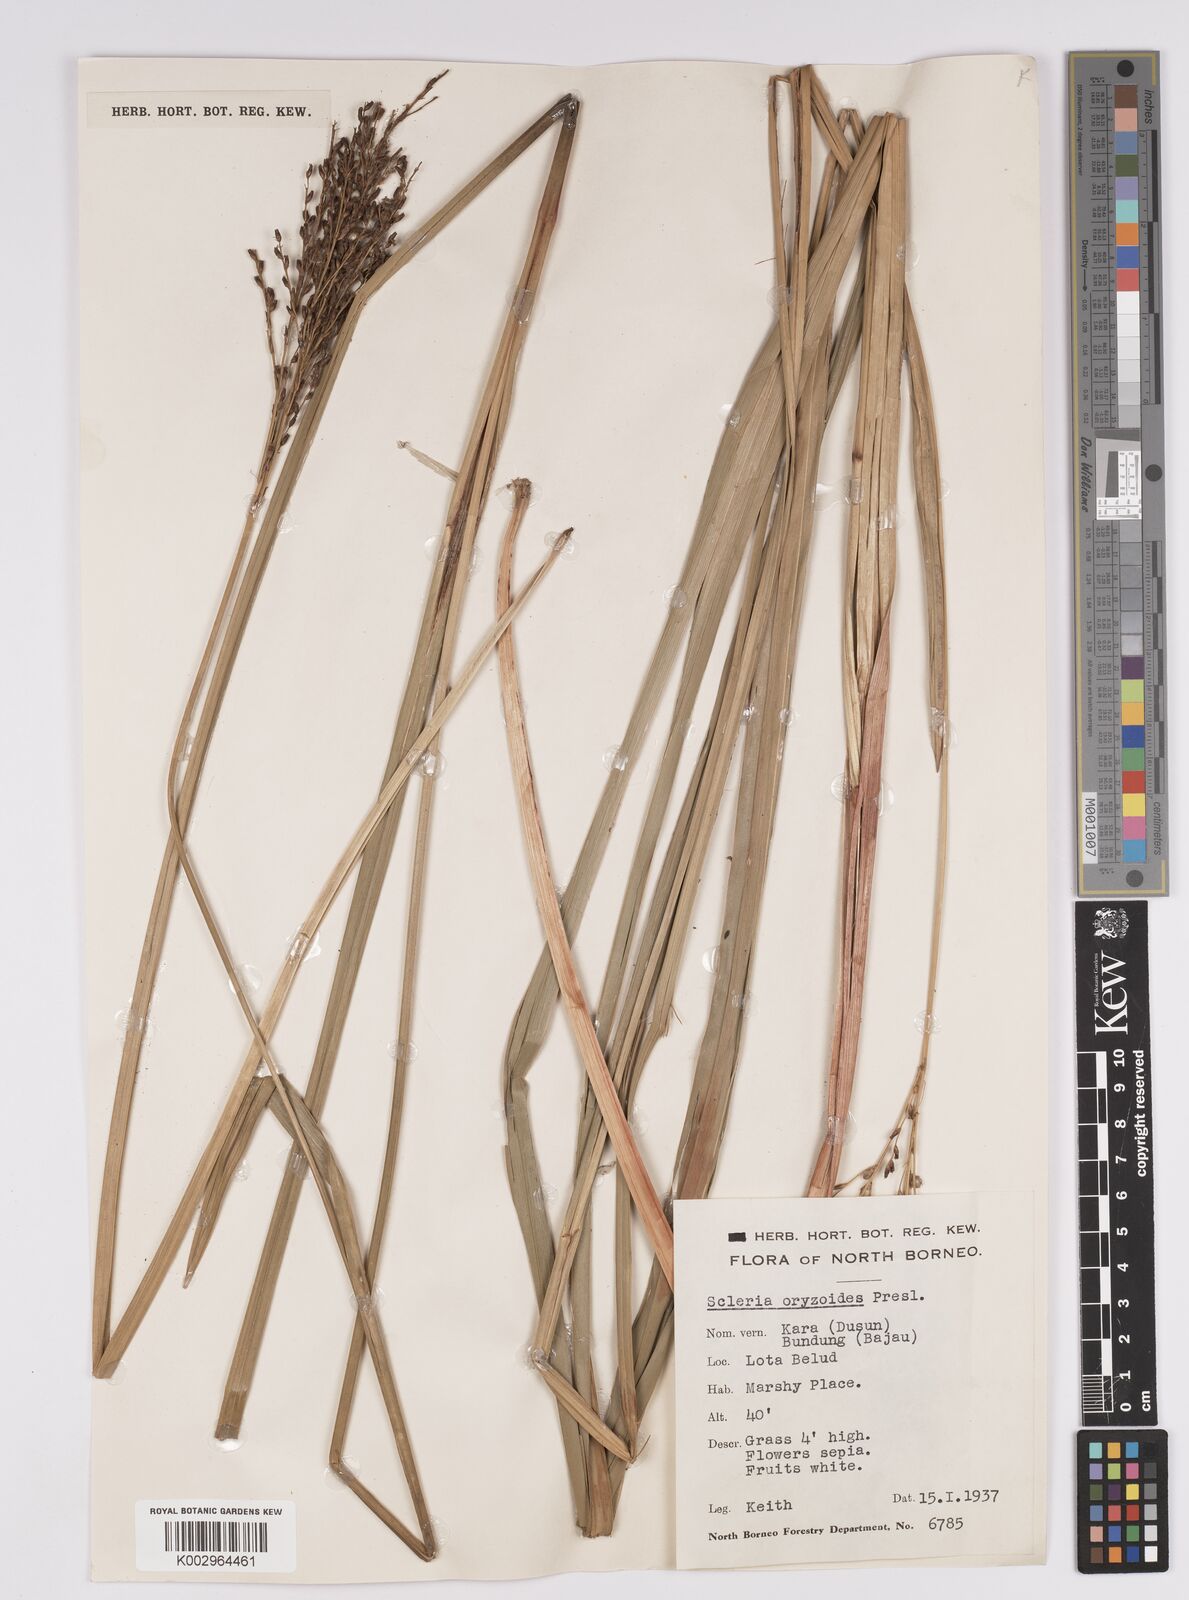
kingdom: Plantae
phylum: Tracheophyta
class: Liliopsida
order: Poales
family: Cyperaceae
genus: Scleria
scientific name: Scleria poiformis
